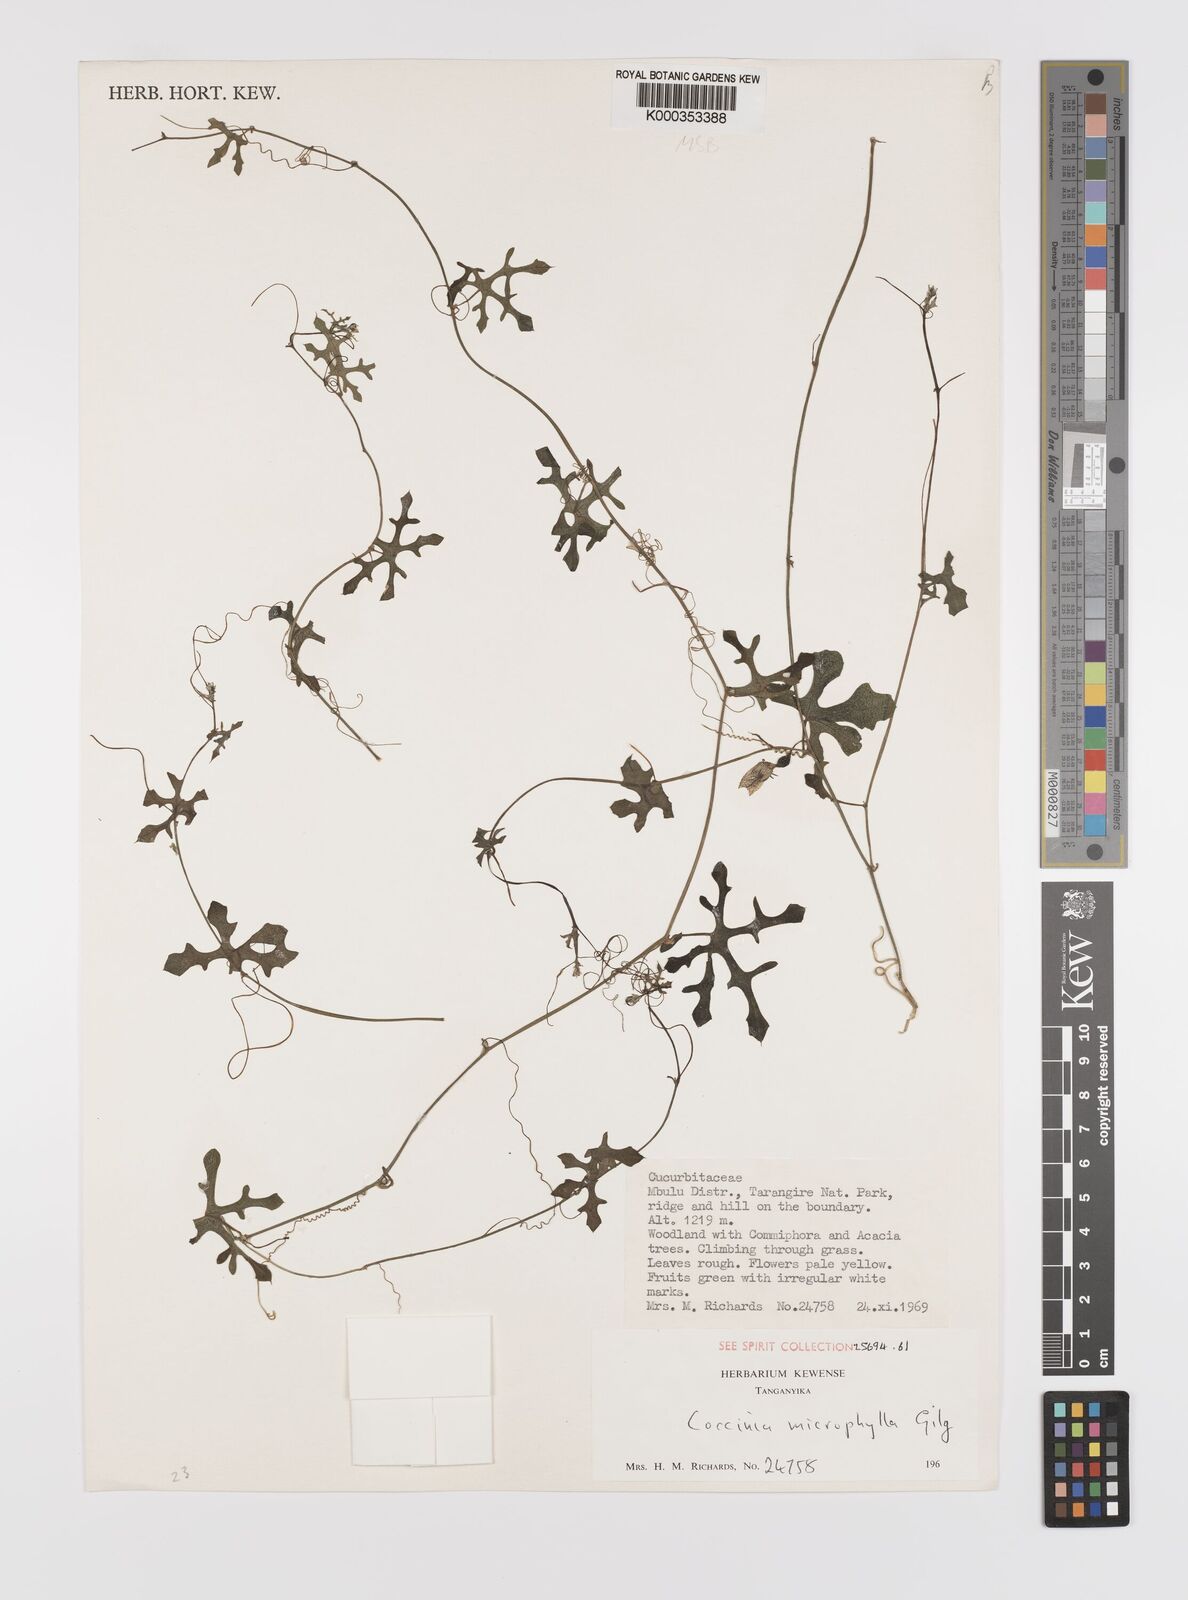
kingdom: Plantae
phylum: Tracheophyta
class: Magnoliopsida
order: Cucurbitales
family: Cucurbitaceae
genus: Coccinia
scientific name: Coccinia microphylla
